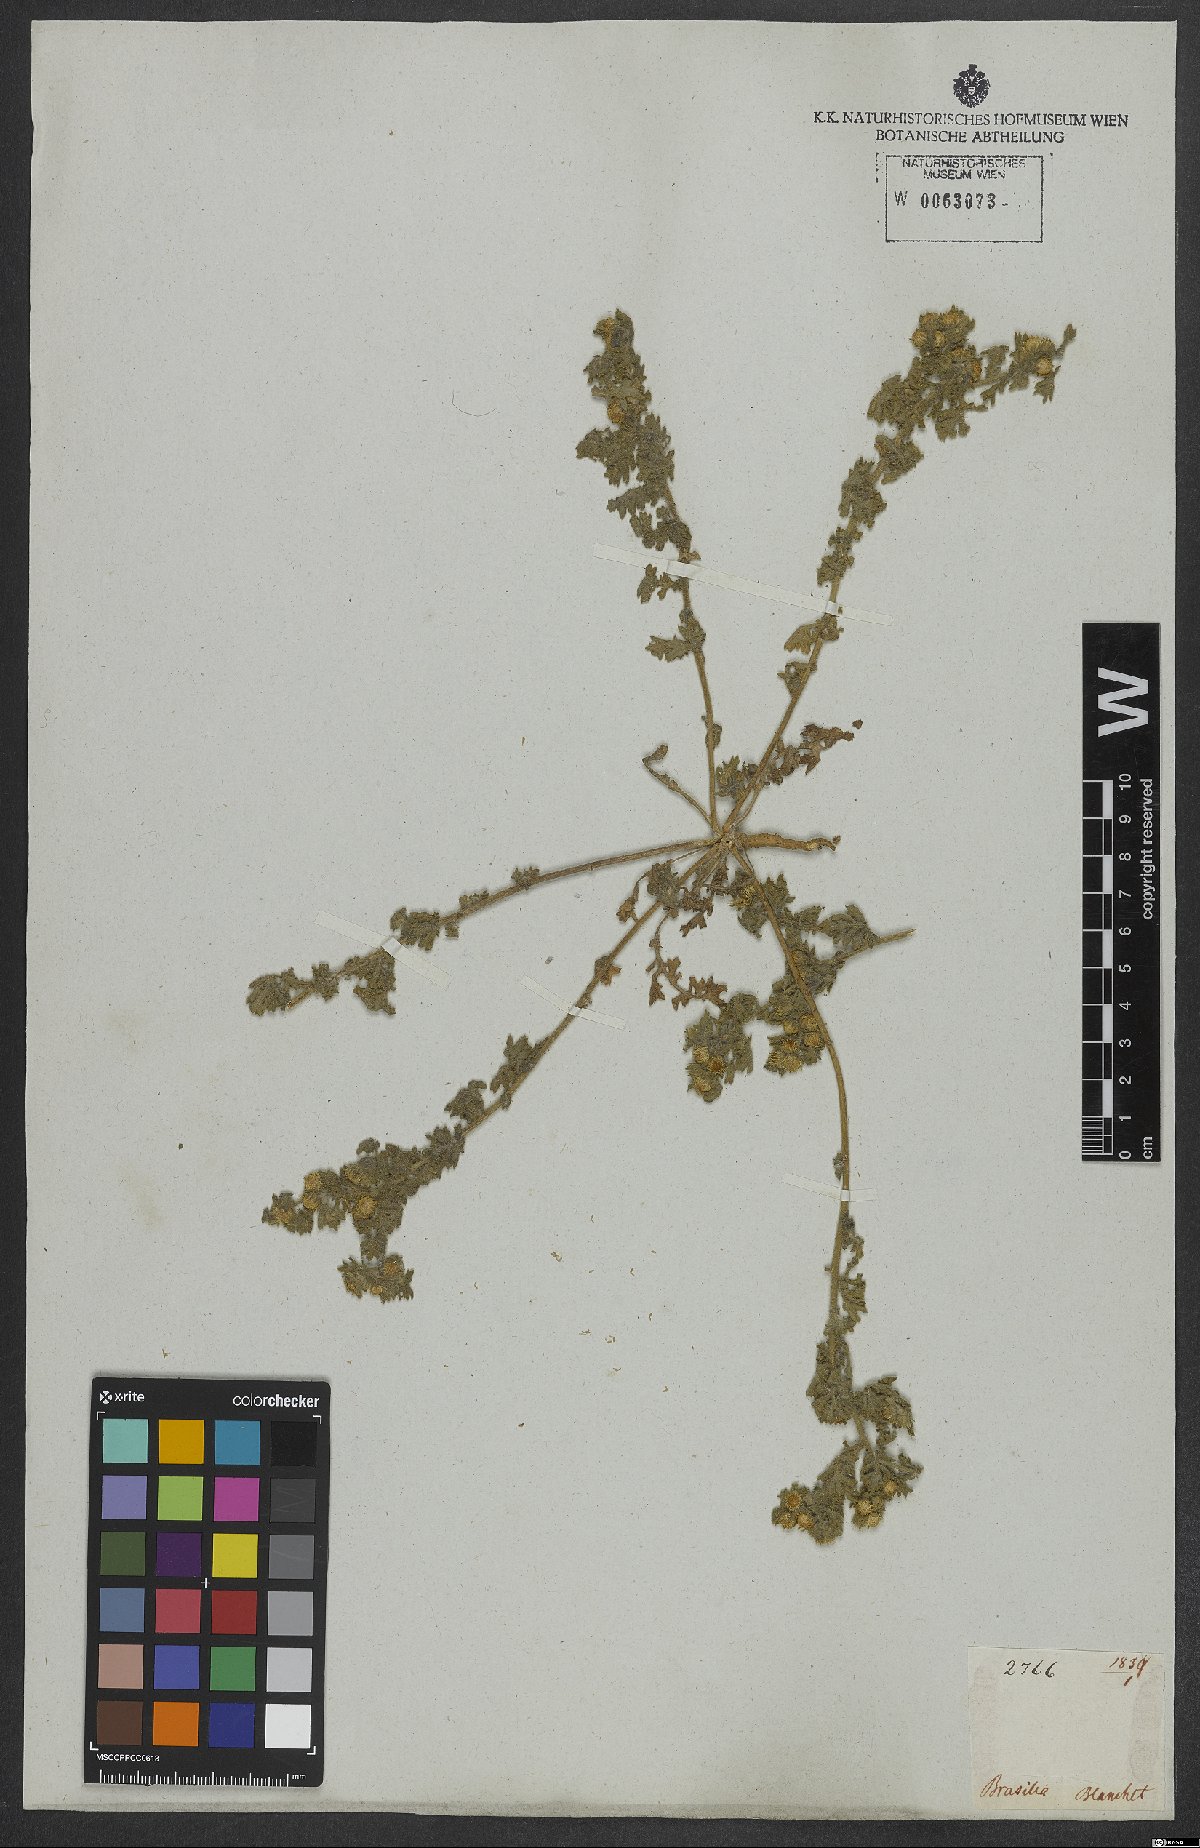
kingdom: Plantae
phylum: Tracheophyta
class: Magnoliopsida
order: Asterales
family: Asteraceae
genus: Egletes
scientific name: Egletes
